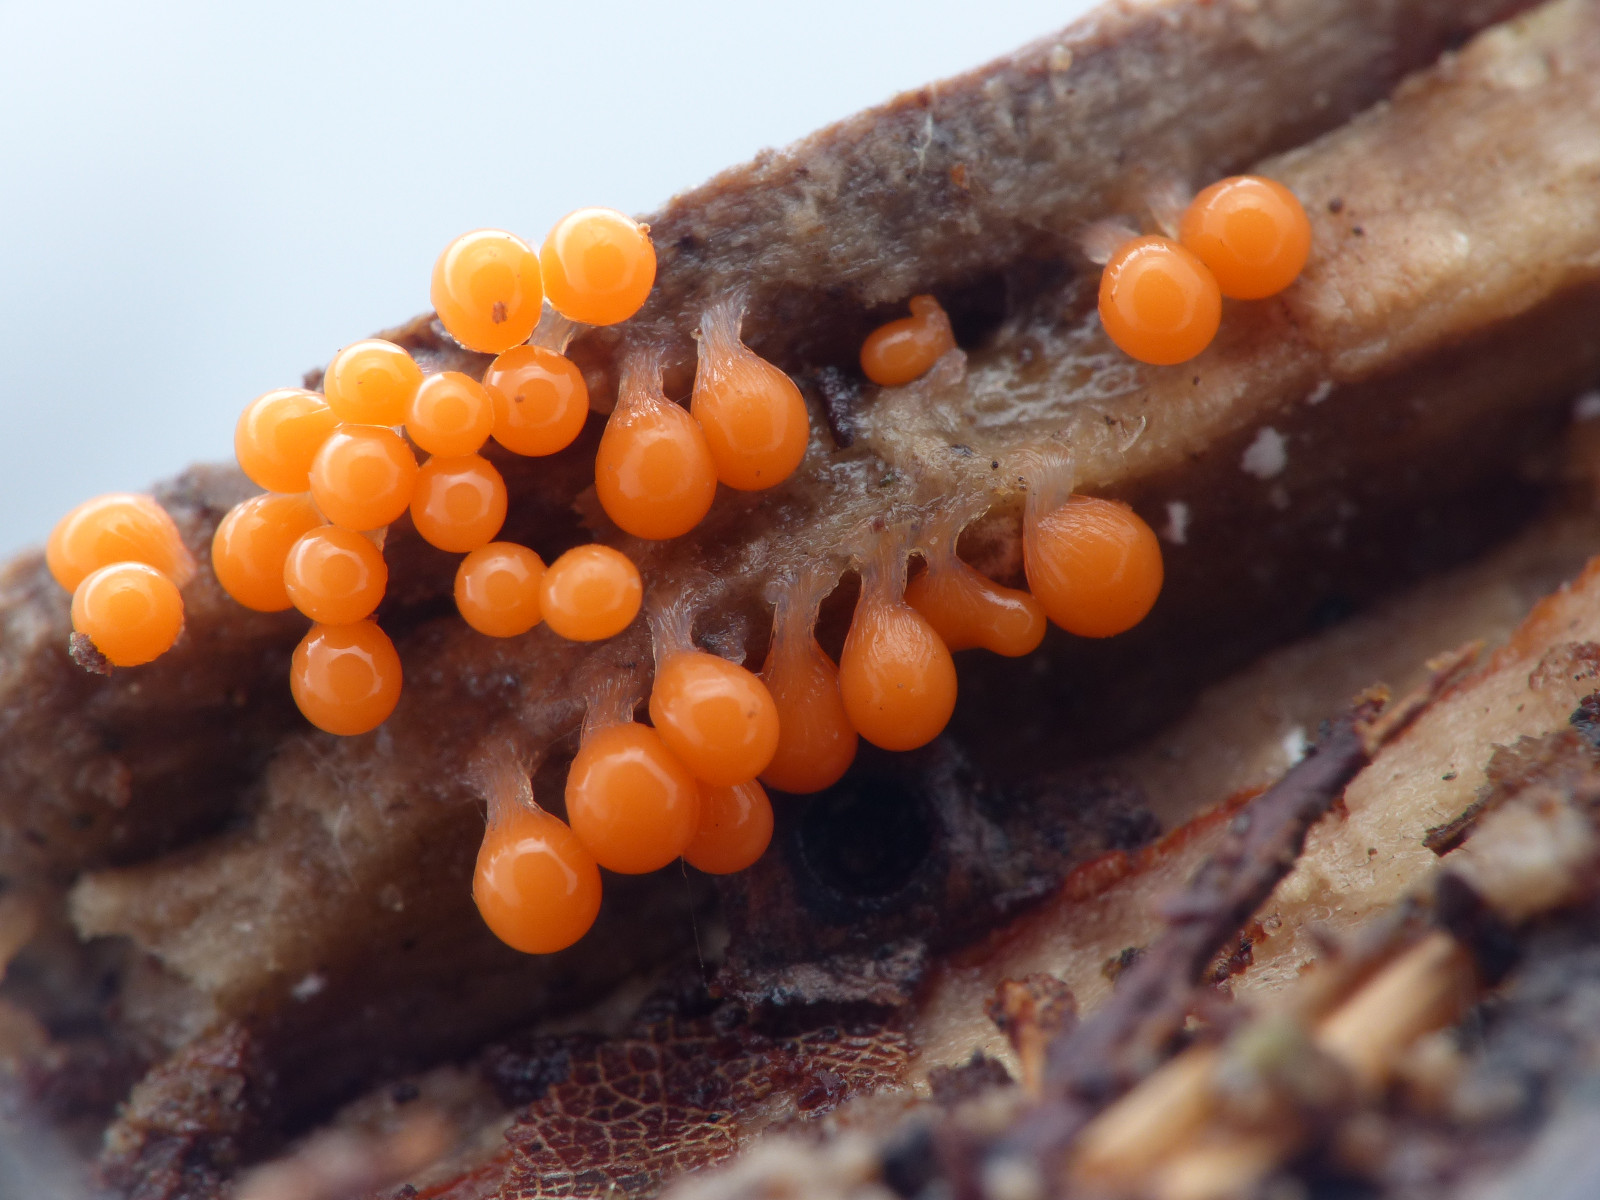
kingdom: Protozoa
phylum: Mycetozoa
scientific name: Mycetozoa
